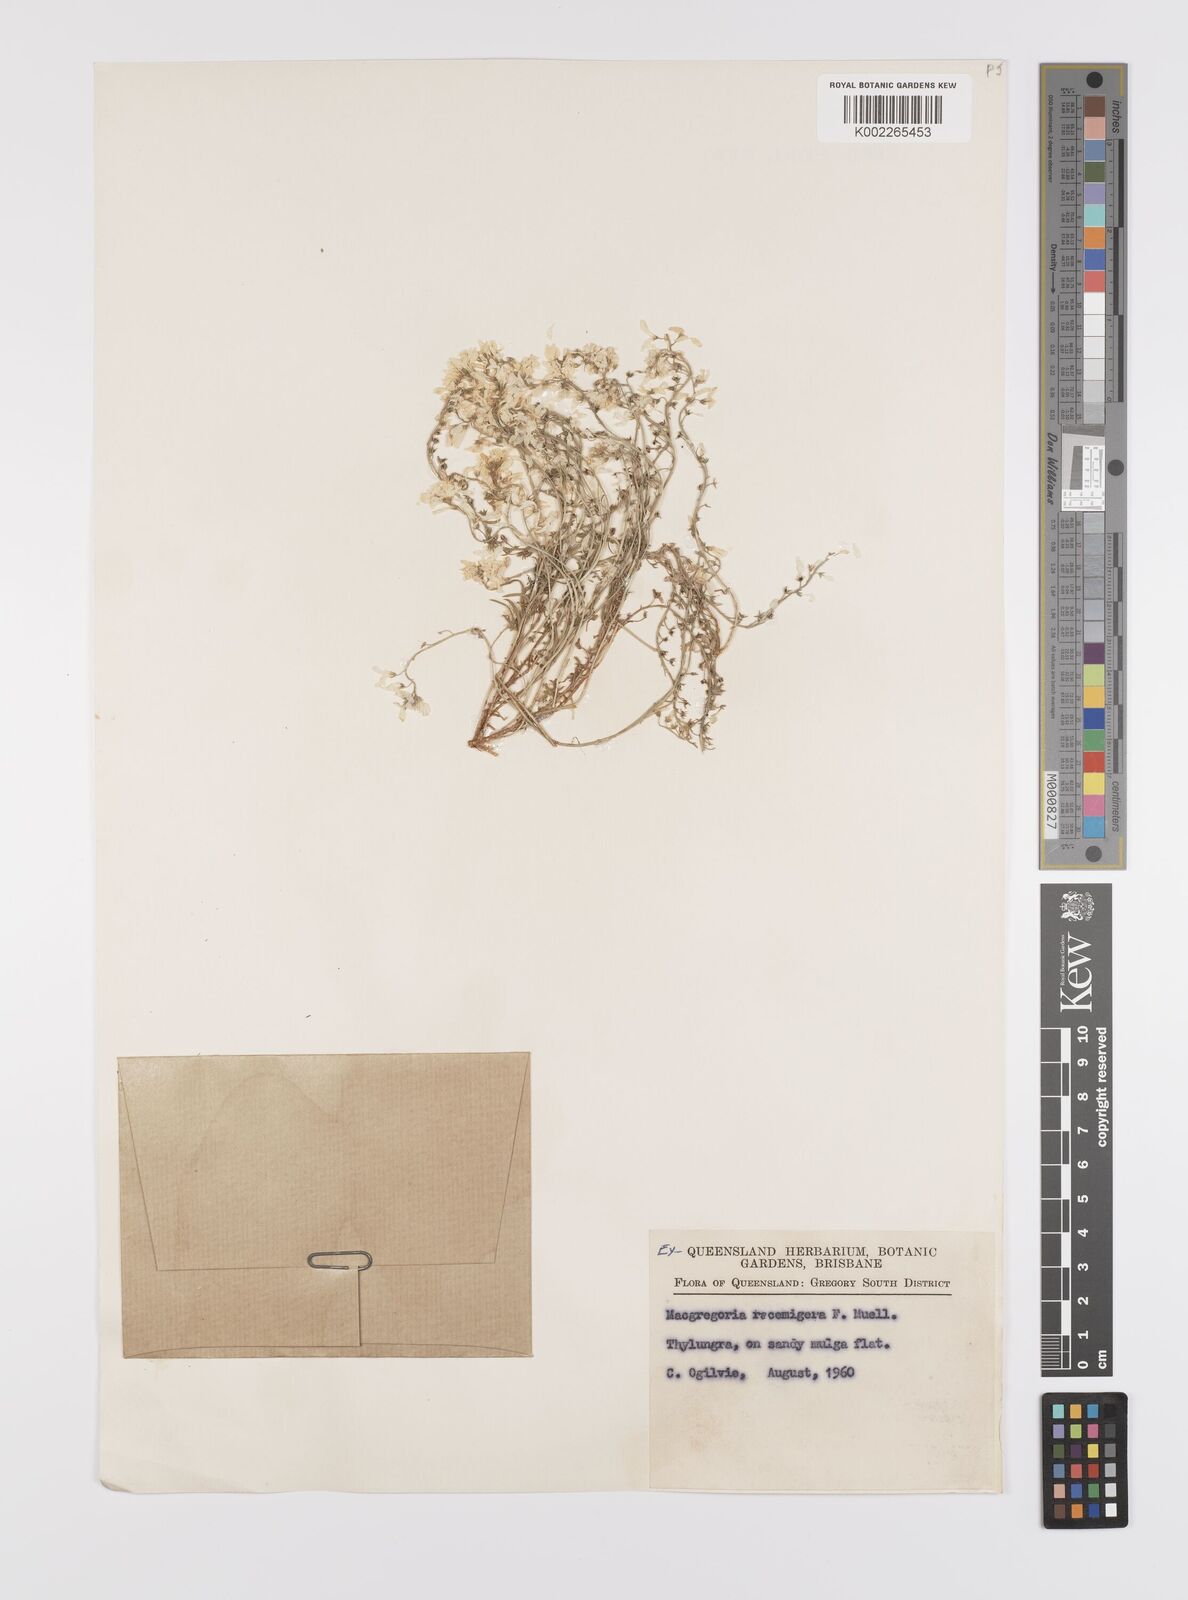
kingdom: Plantae
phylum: Tracheophyta
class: Magnoliopsida
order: Celastrales
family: Celastraceae
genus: Macgregoria
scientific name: Macgregoria racemigera
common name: Carpet-of-snow
